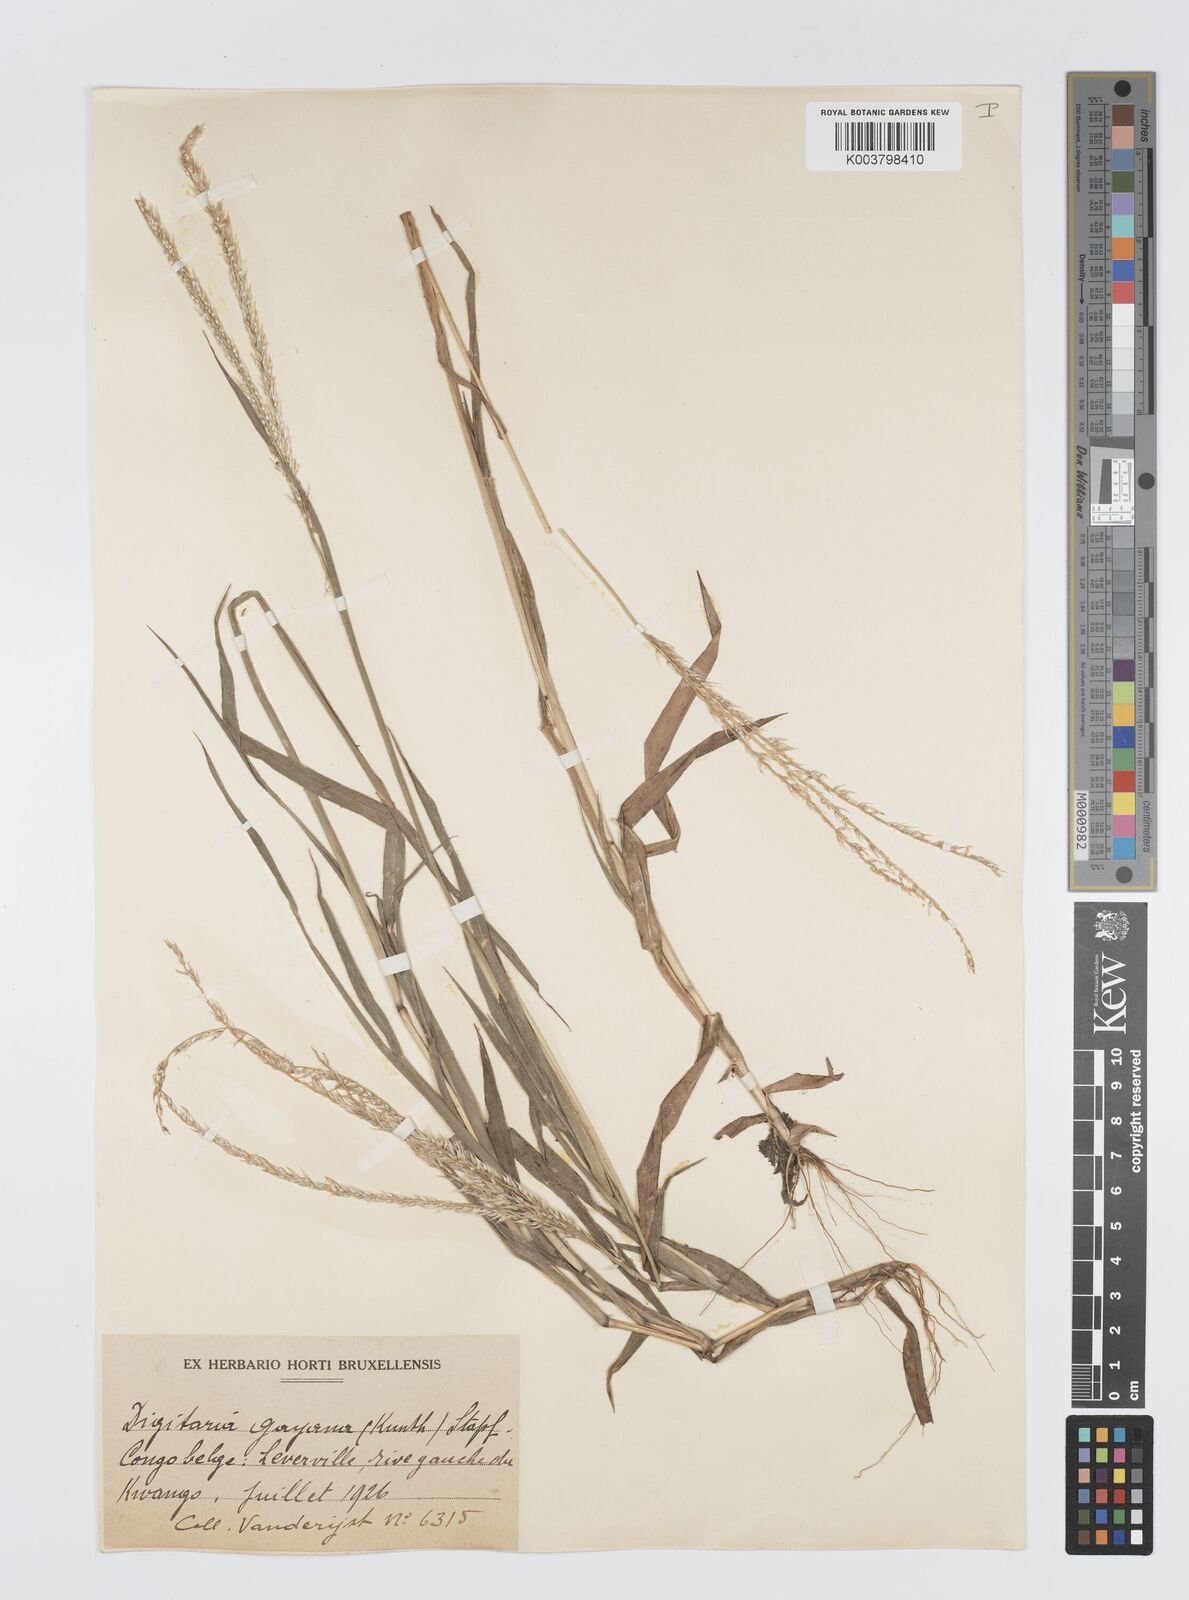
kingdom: Plantae
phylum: Tracheophyta
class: Liliopsida
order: Poales
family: Poaceae
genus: Digitaria
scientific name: Digitaria gayana
